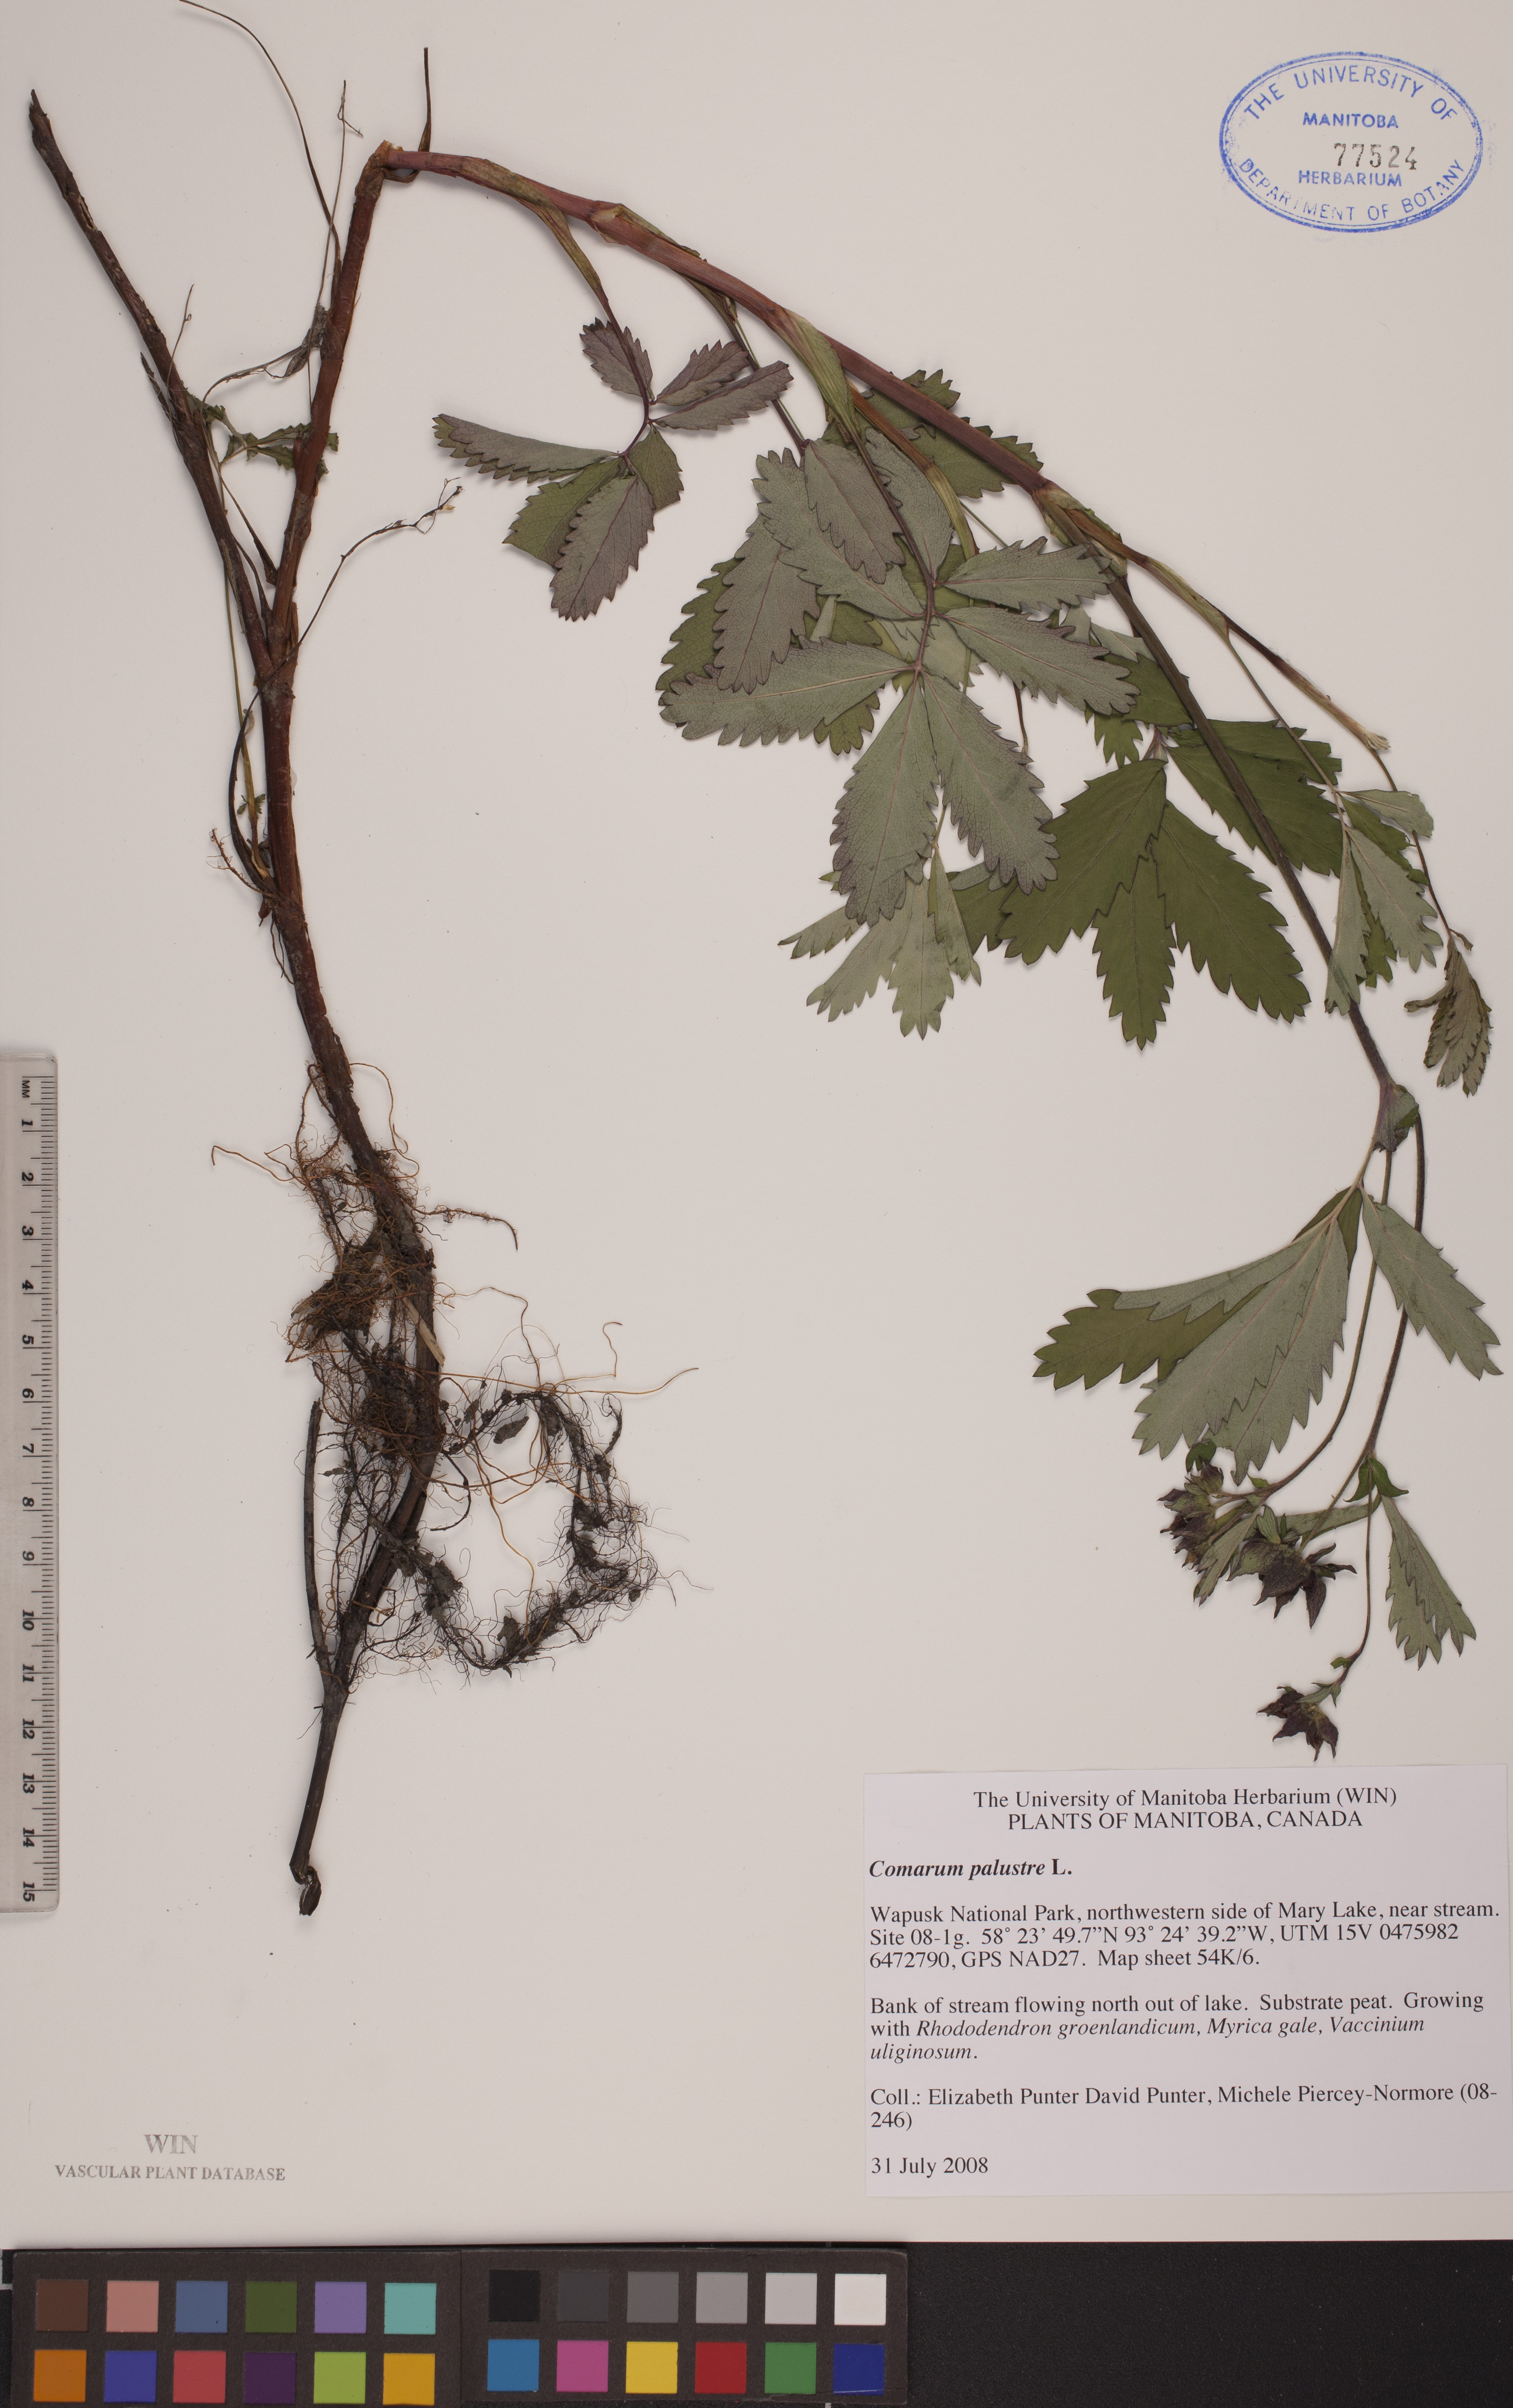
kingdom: Plantae
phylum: Tracheophyta
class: Magnoliopsida
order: Rosales
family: Rosaceae
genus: Comarum
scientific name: Comarum palustre
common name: Marsh cinquefoil
